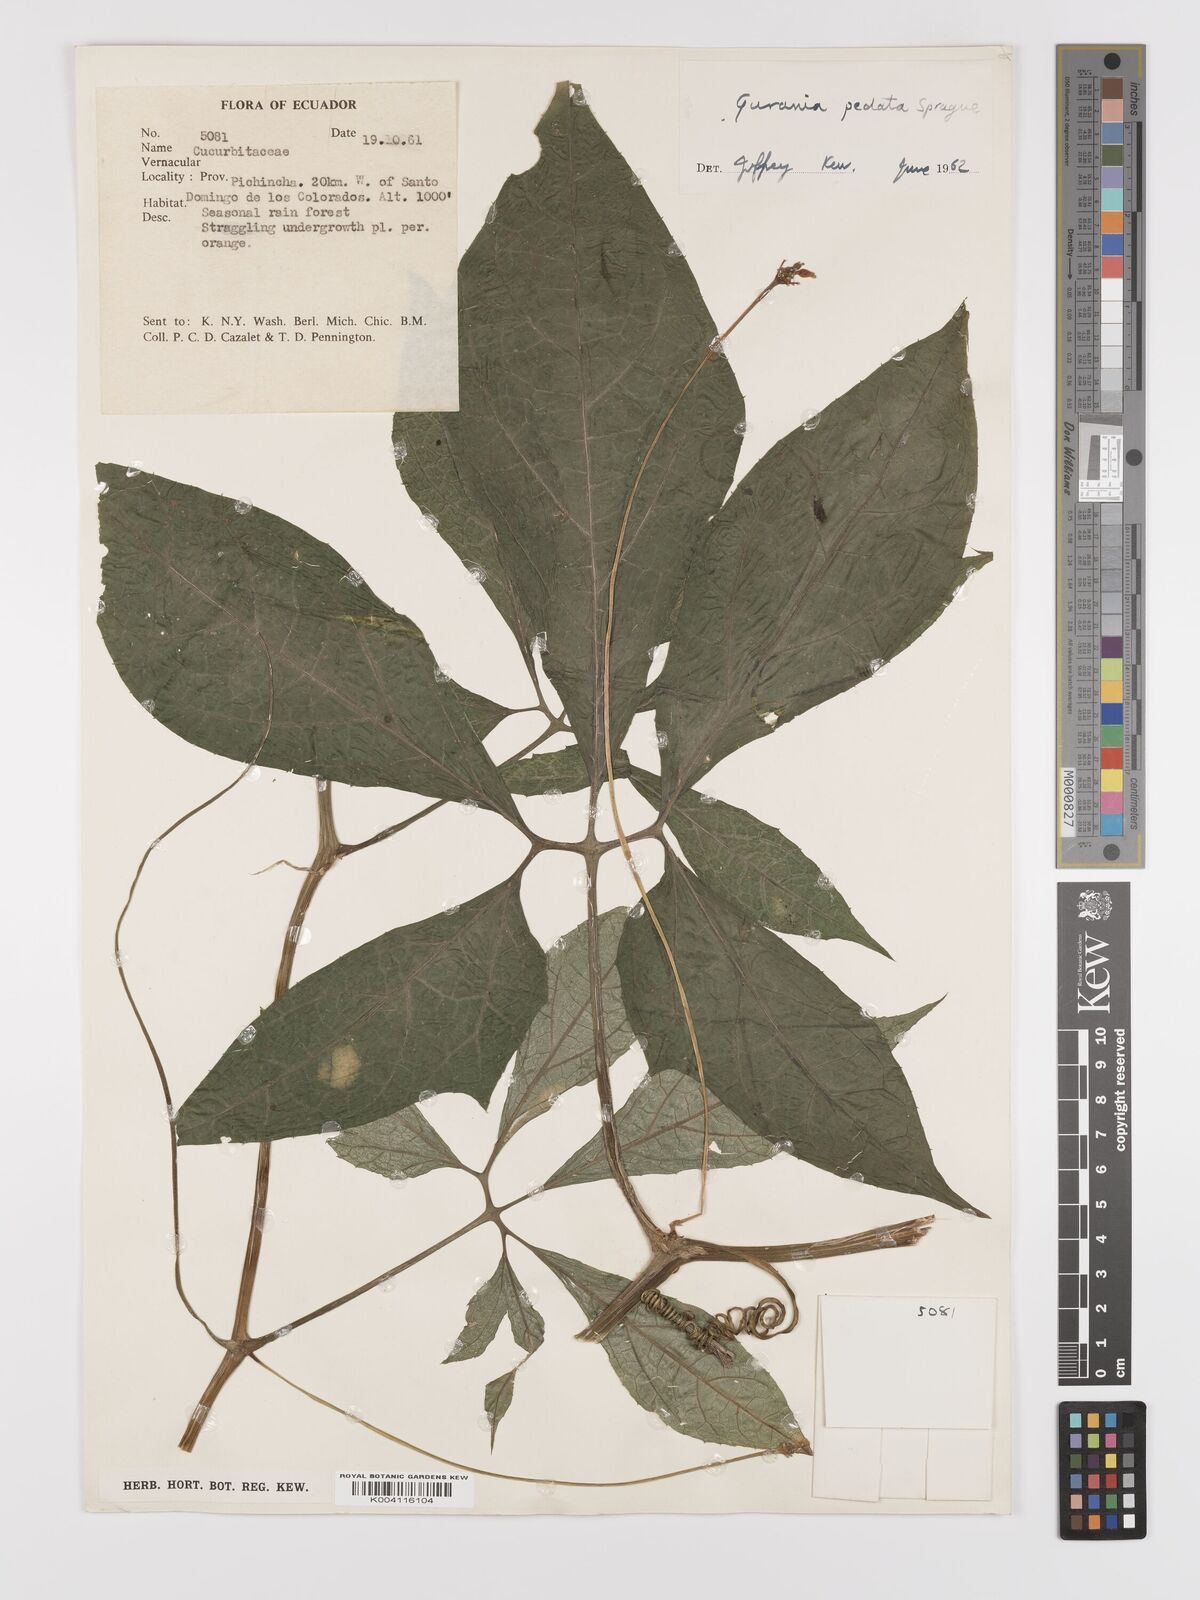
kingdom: Plantae
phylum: Tracheophyta
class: Magnoliopsida
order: Cucurbitales
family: Cucurbitaceae
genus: Gurania
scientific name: Gurania pedata
